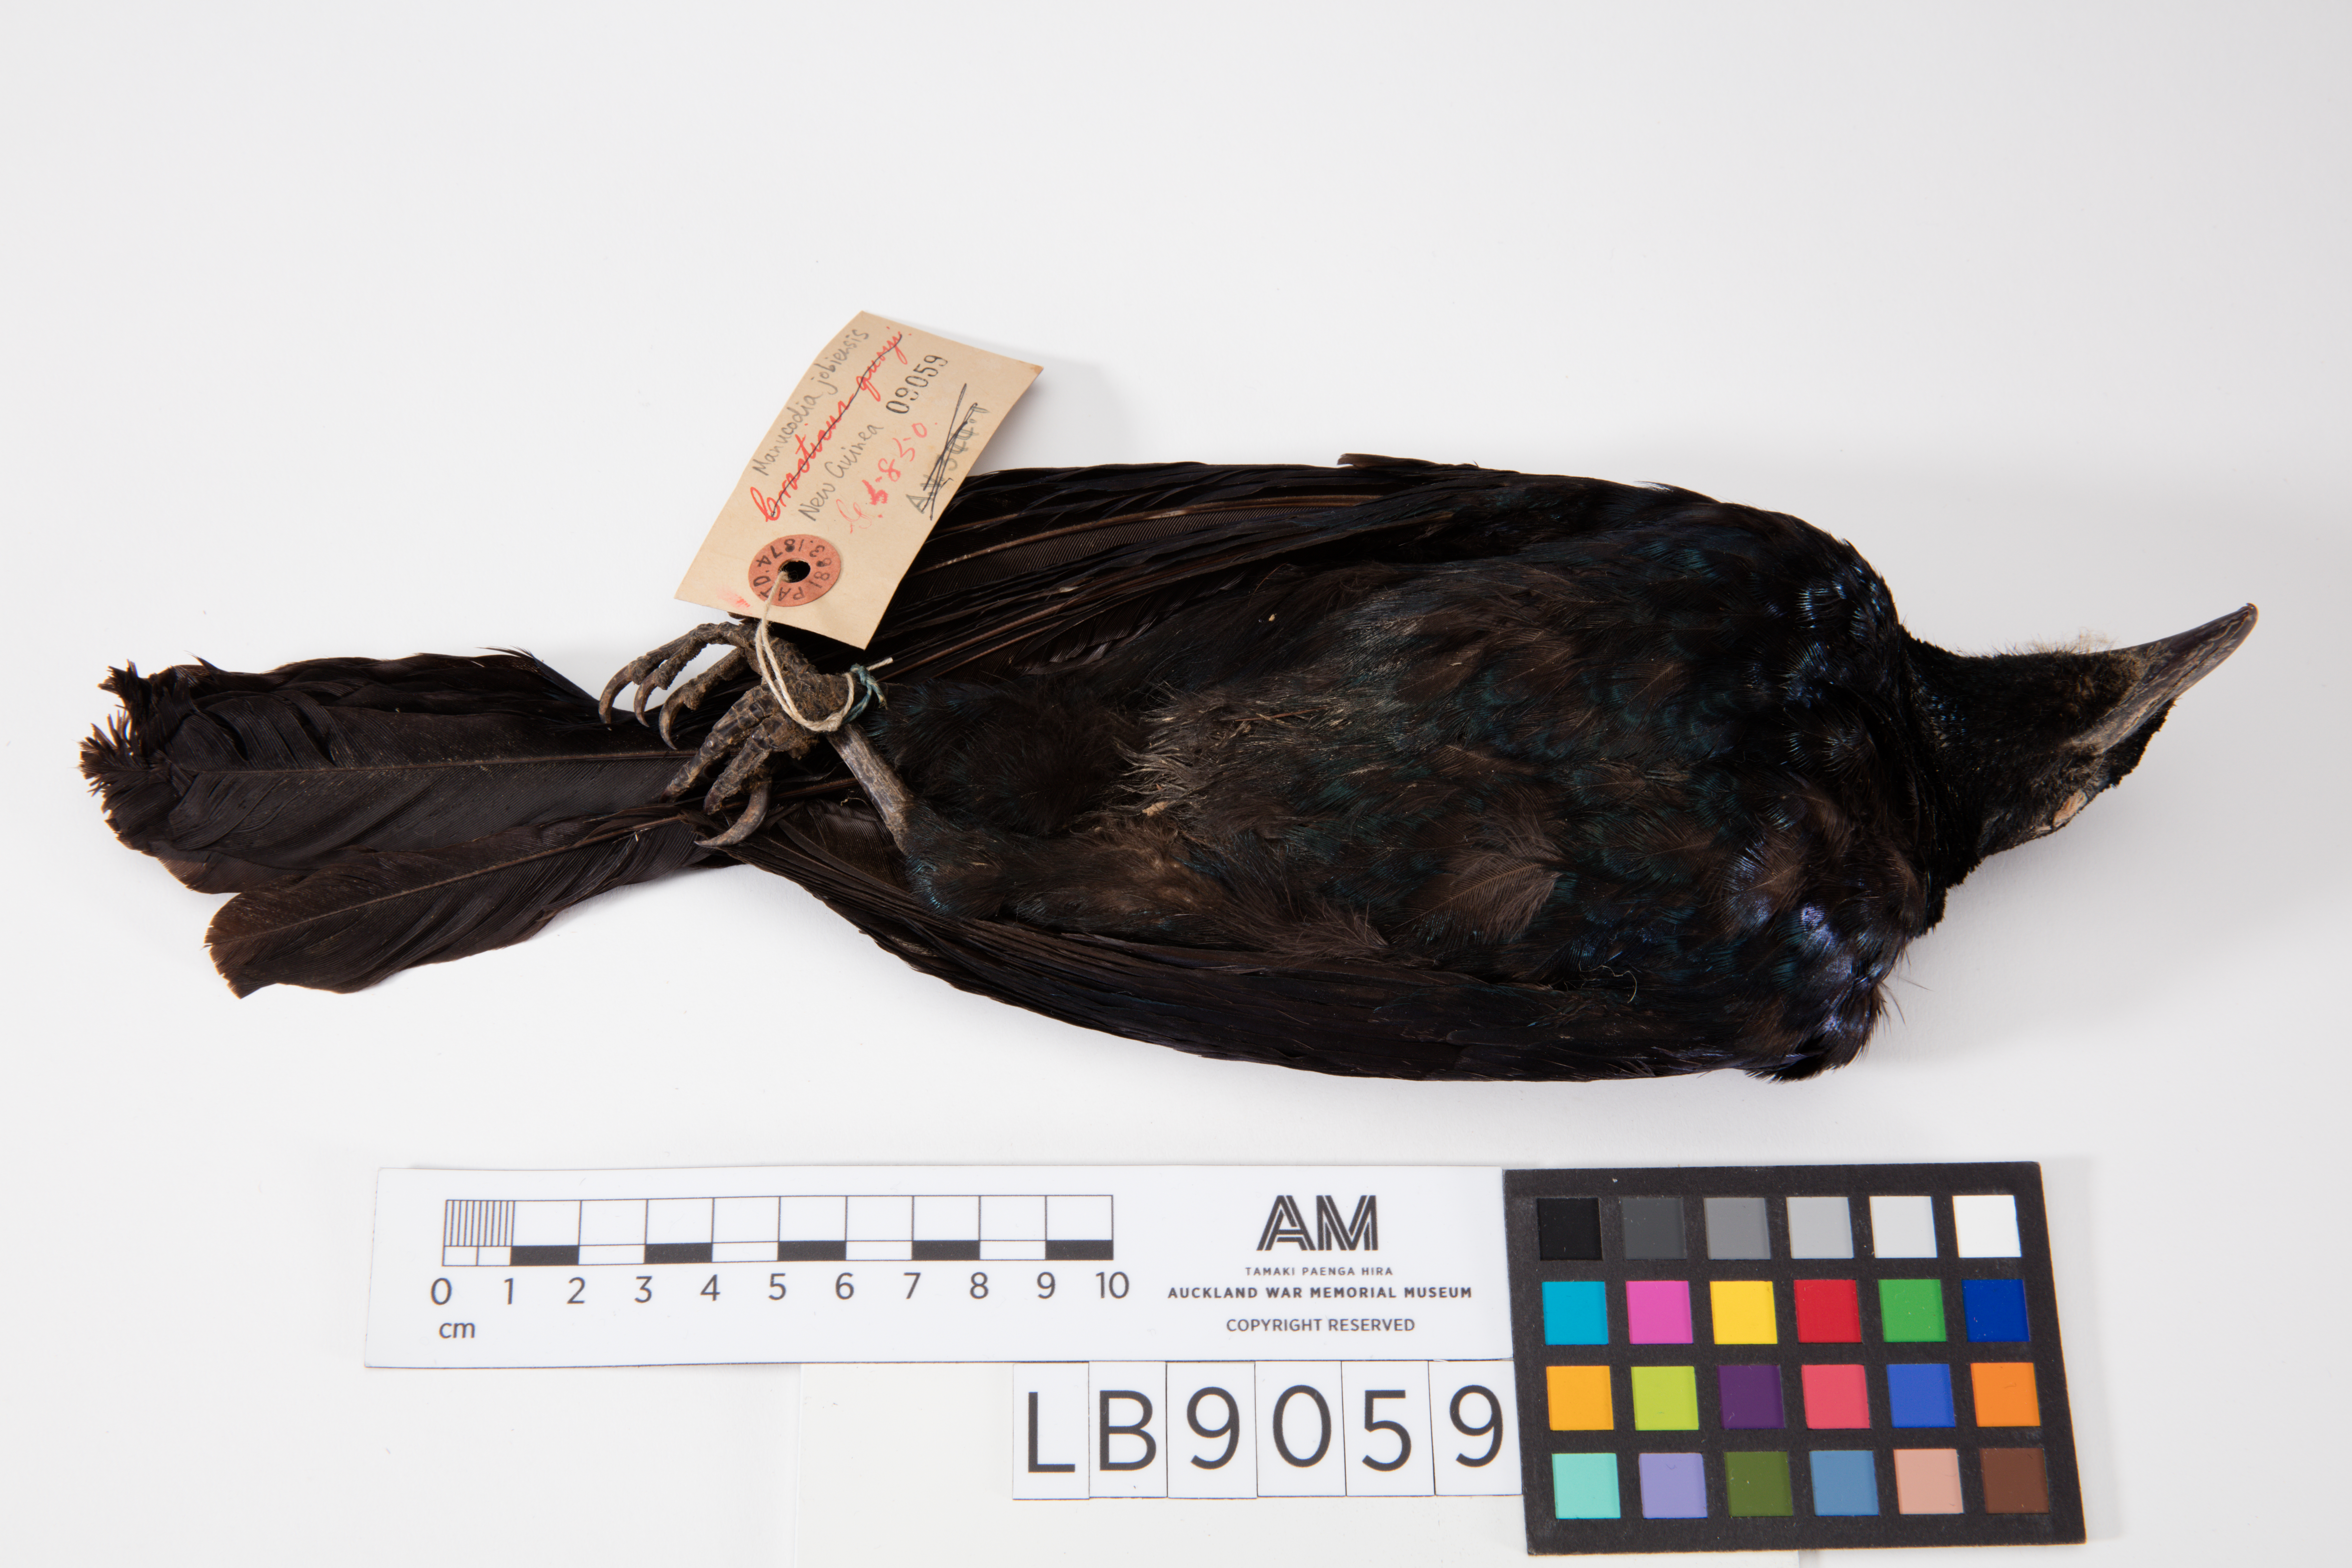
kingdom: Animalia
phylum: Chordata
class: Aves
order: Passeriformes
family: Paradisaeidae
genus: Manucodia
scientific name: Manucodia jobiensis
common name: Jobi manucode
